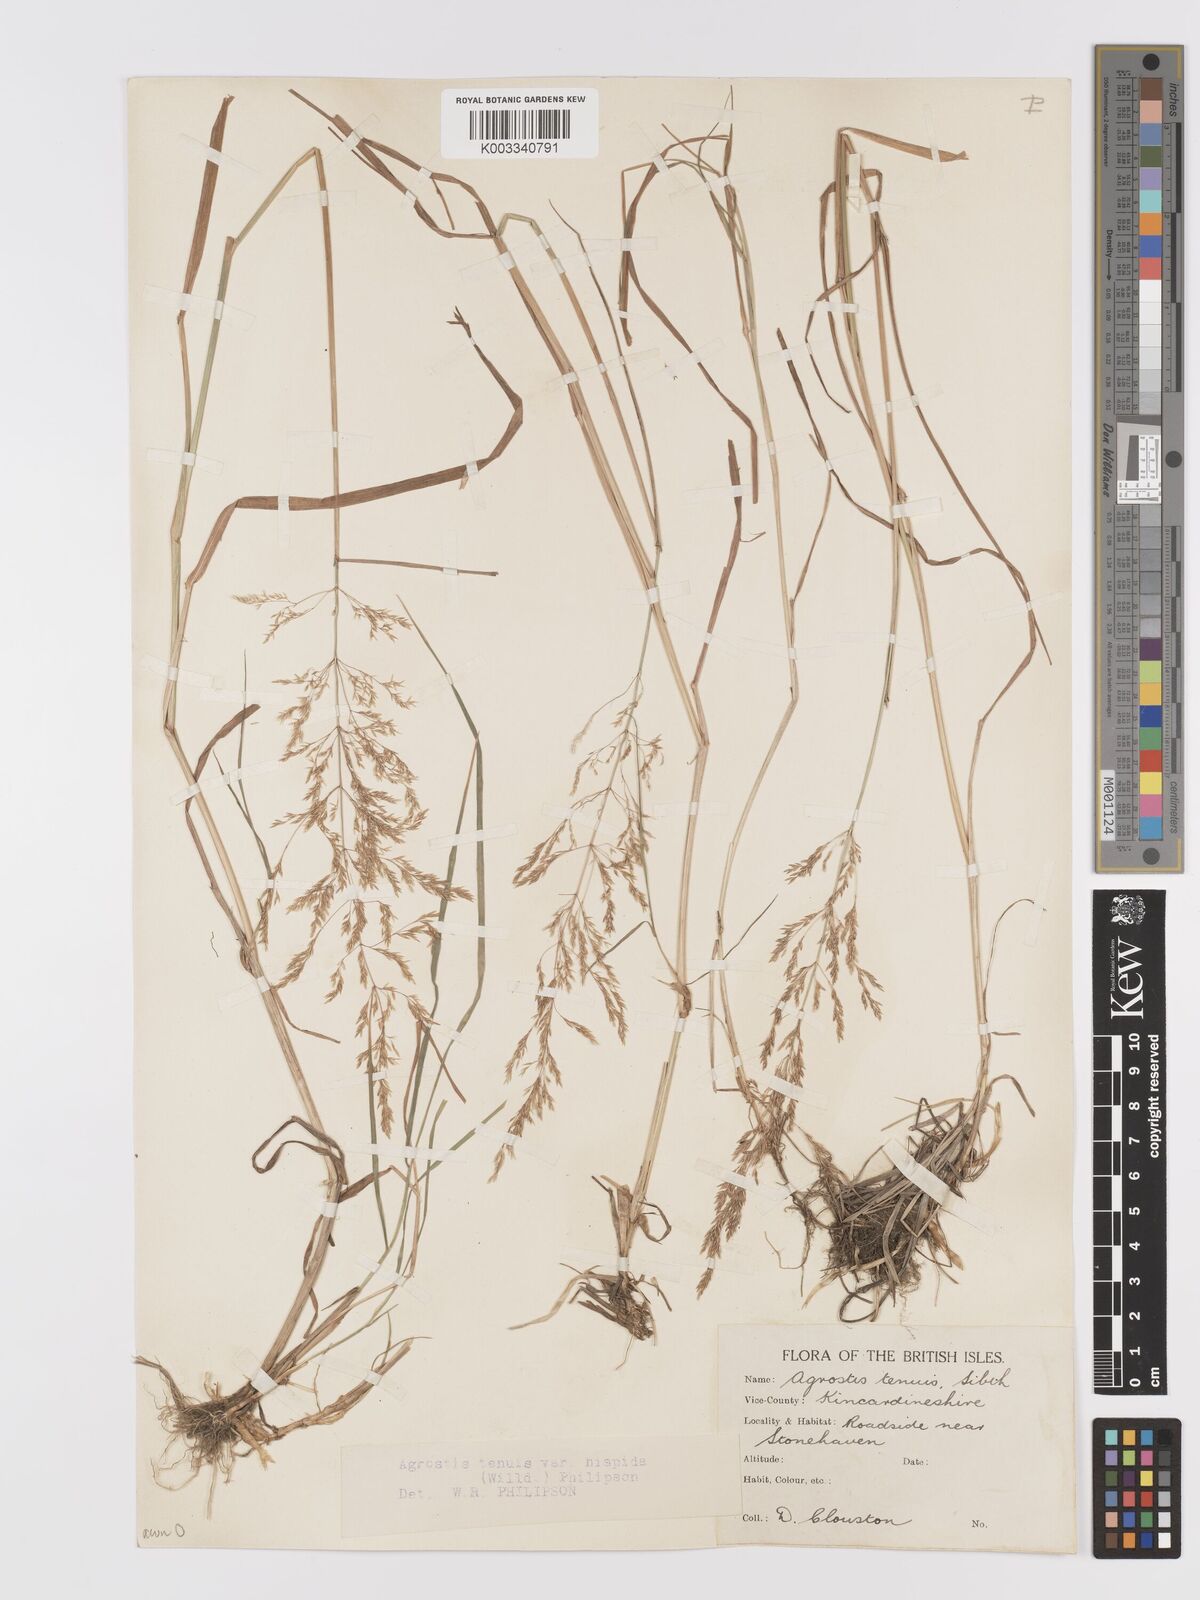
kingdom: Plantae
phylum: Tracheophyta
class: Liliopsida
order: Poales
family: Poaceae
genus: Agrostis
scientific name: Agrostis capillaris
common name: Colonial bentgrass
